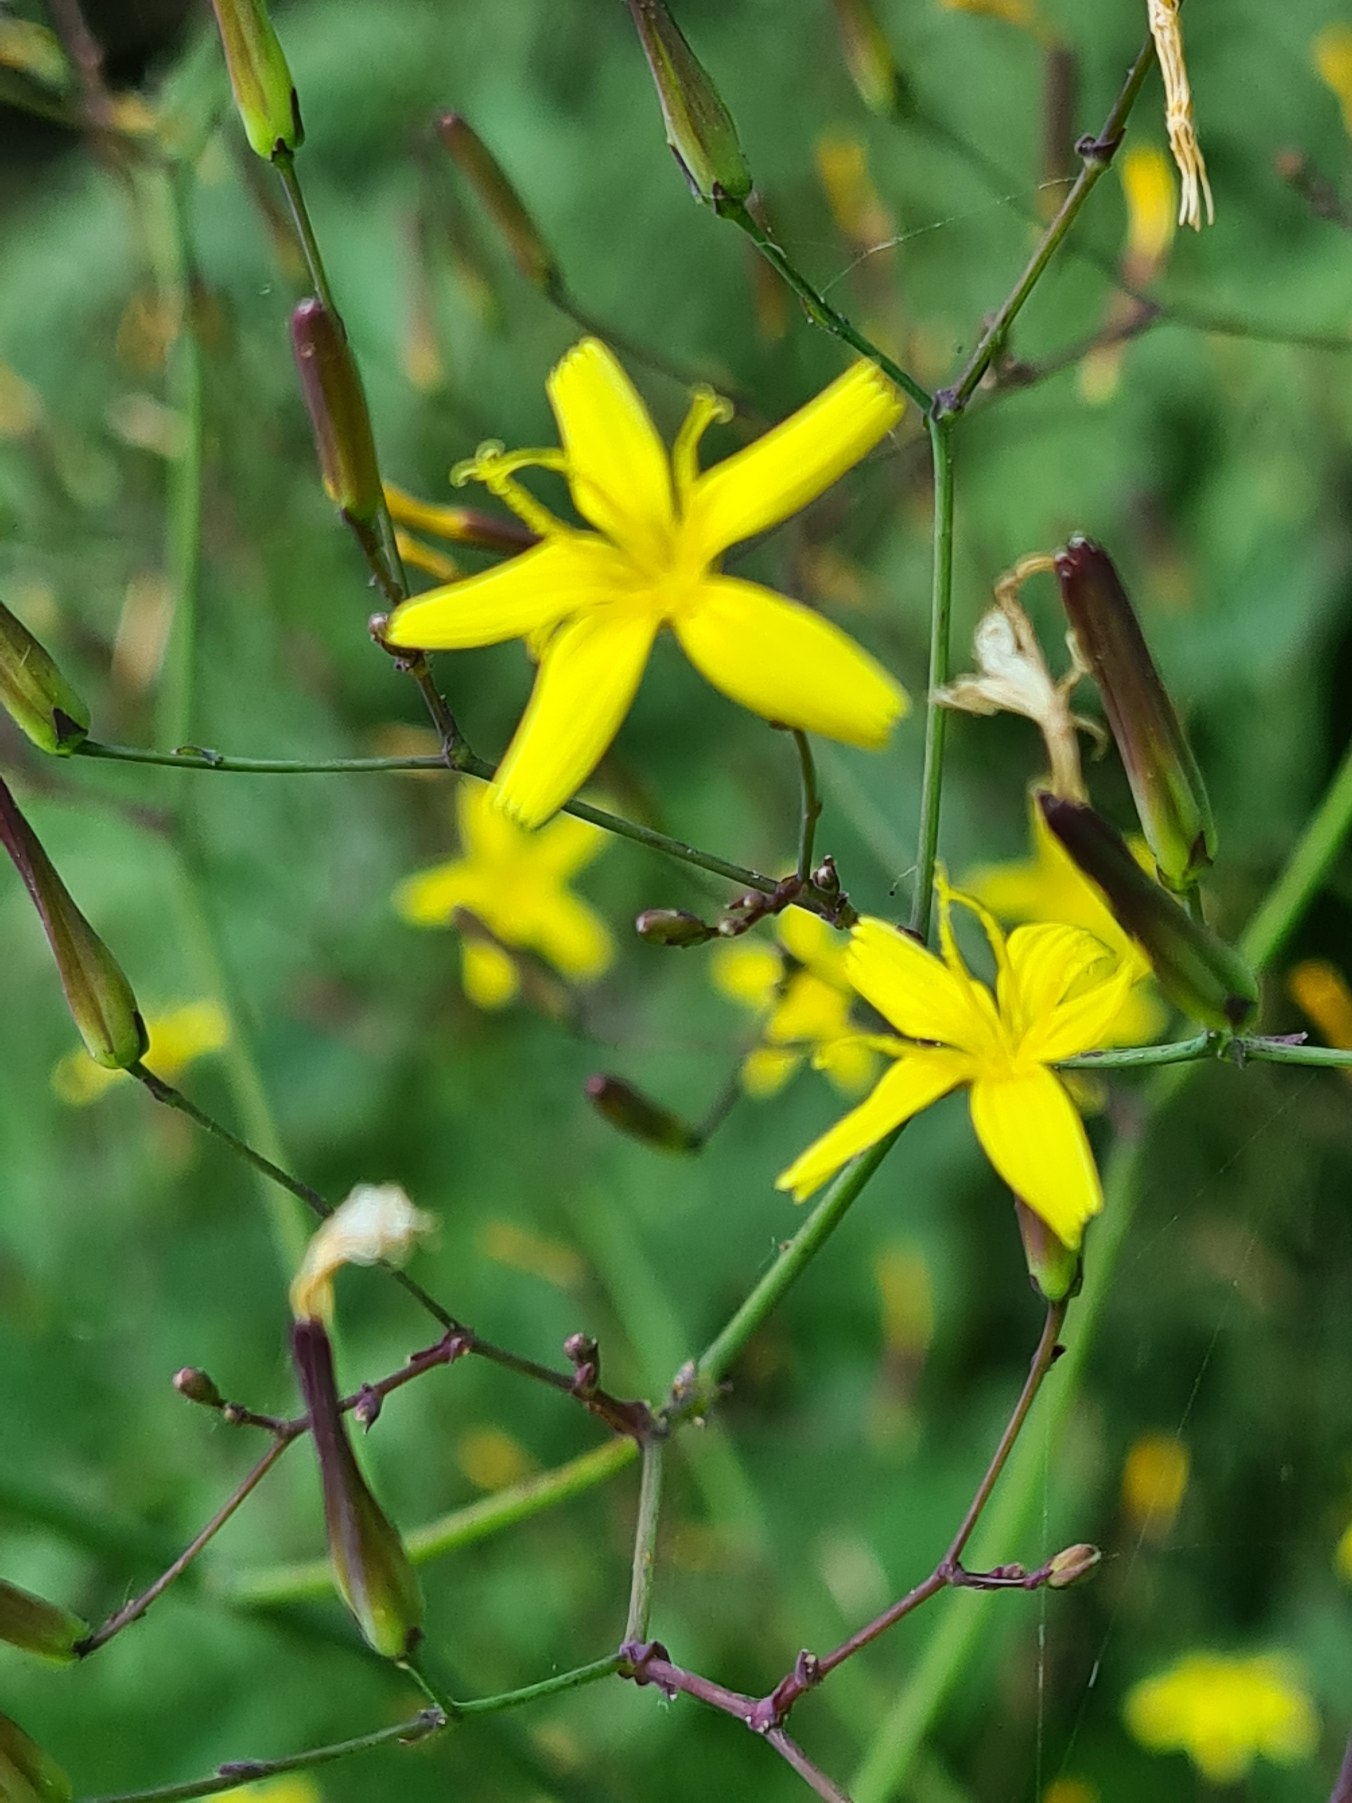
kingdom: Plantae
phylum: Tracheophyta
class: Magnoliopsida
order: Asterales
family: Asteraceae
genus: Mycelis
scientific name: Mycelis muralis
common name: Skov-salat
